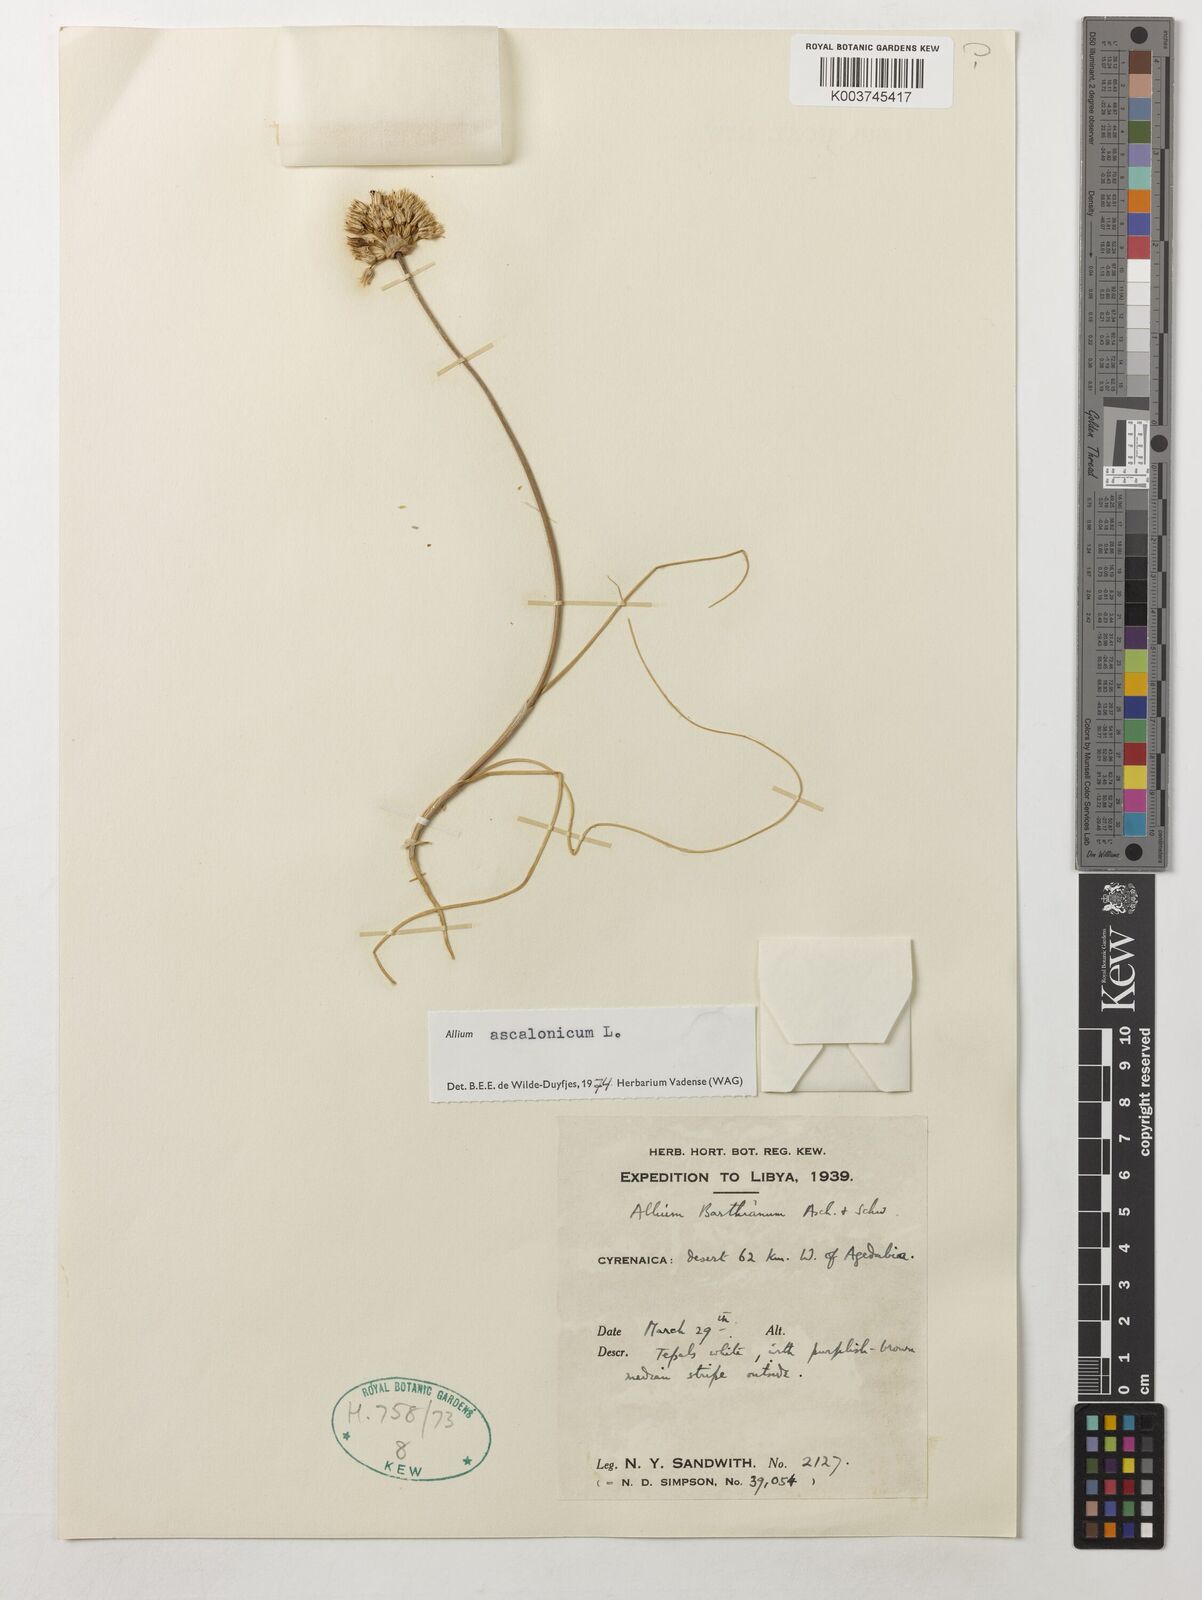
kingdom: Plantae
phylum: Tracheophyta
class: Liliopsida
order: Asparagales
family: Amaryllidaceae
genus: Allium
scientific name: Allium ascalonicum
